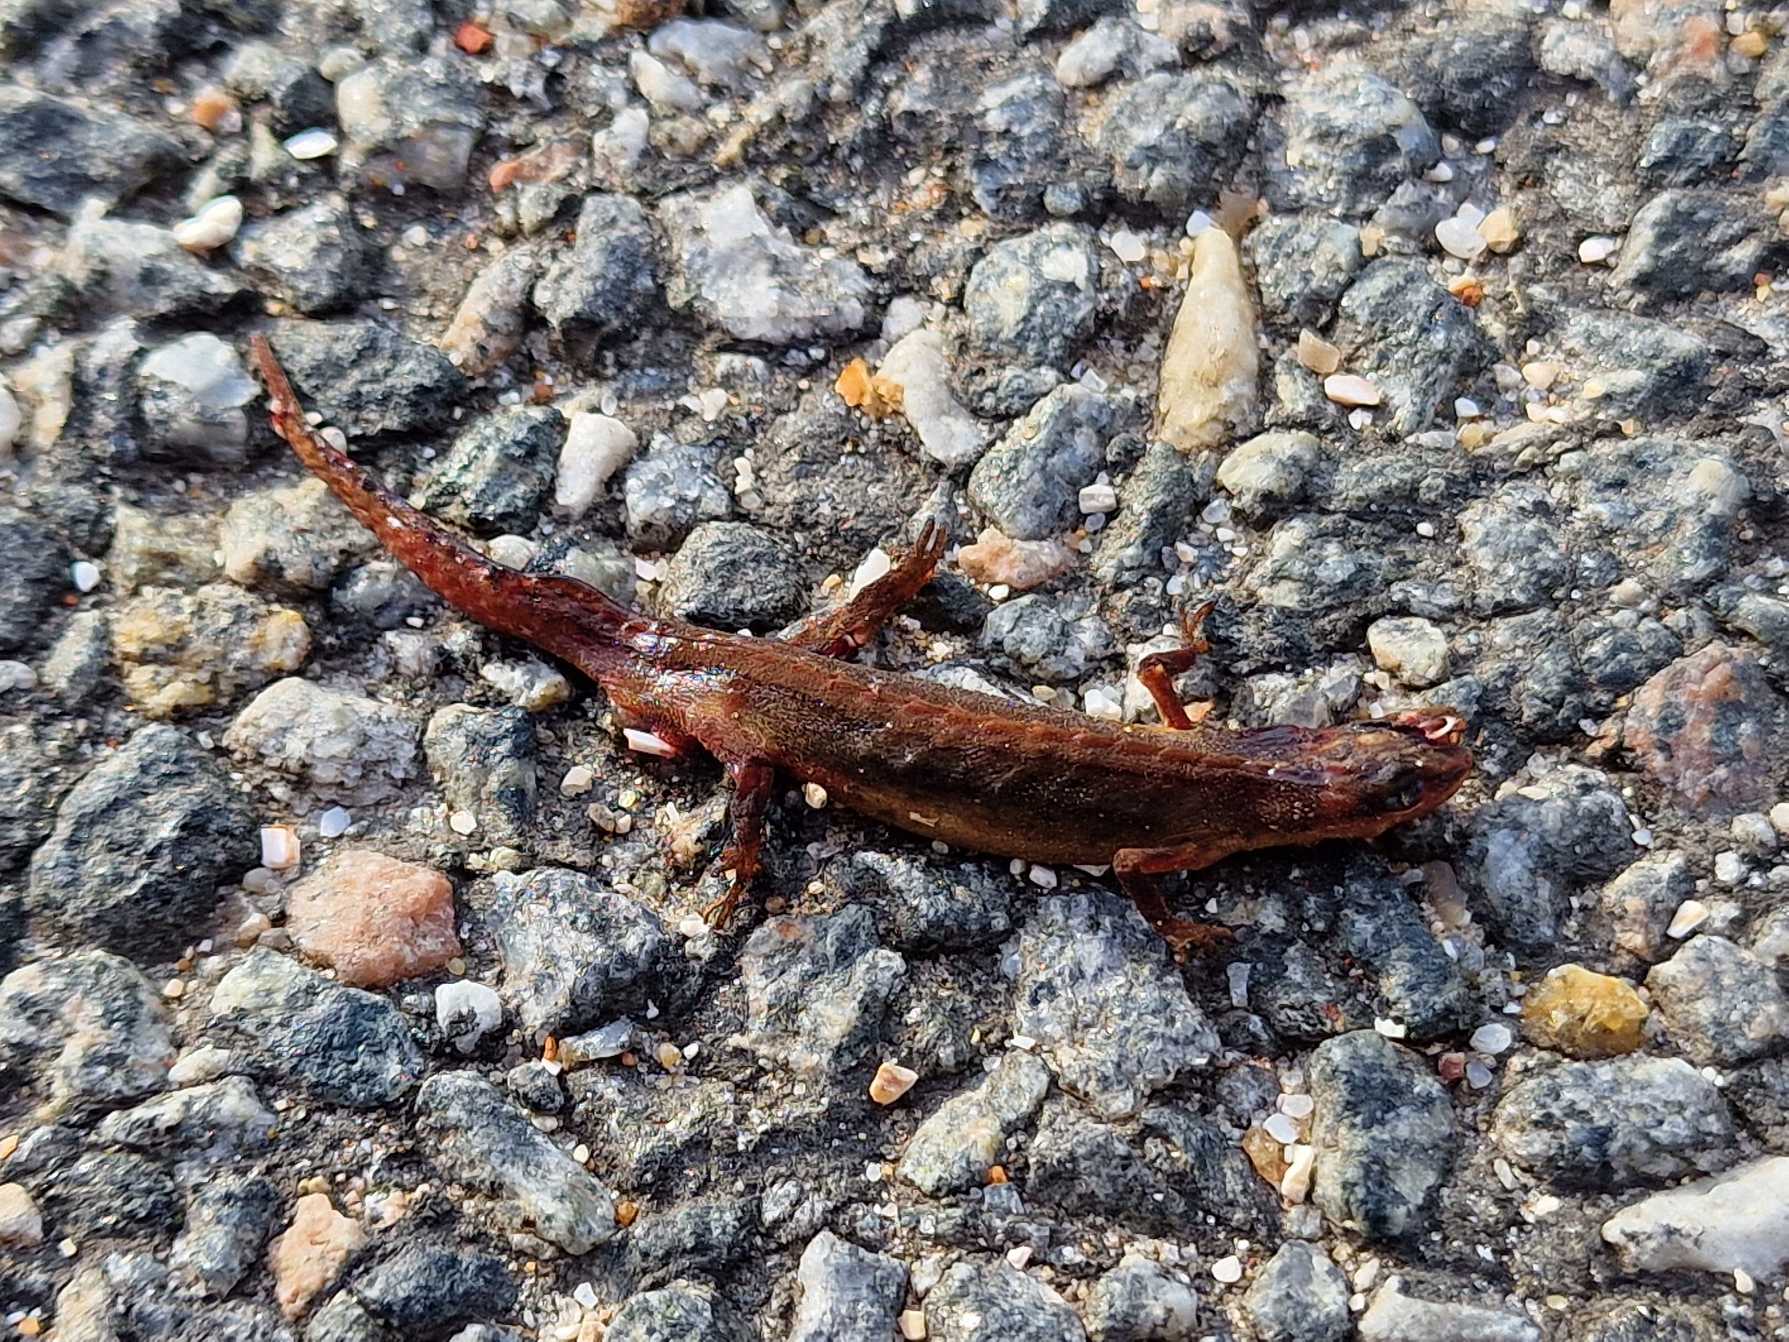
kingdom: Animalia
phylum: Chordata
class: Amphibia
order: Caudata
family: Salamandridae
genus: Lissotriton
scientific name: Lissotriton vulgaris
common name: Lille vandsalamander
